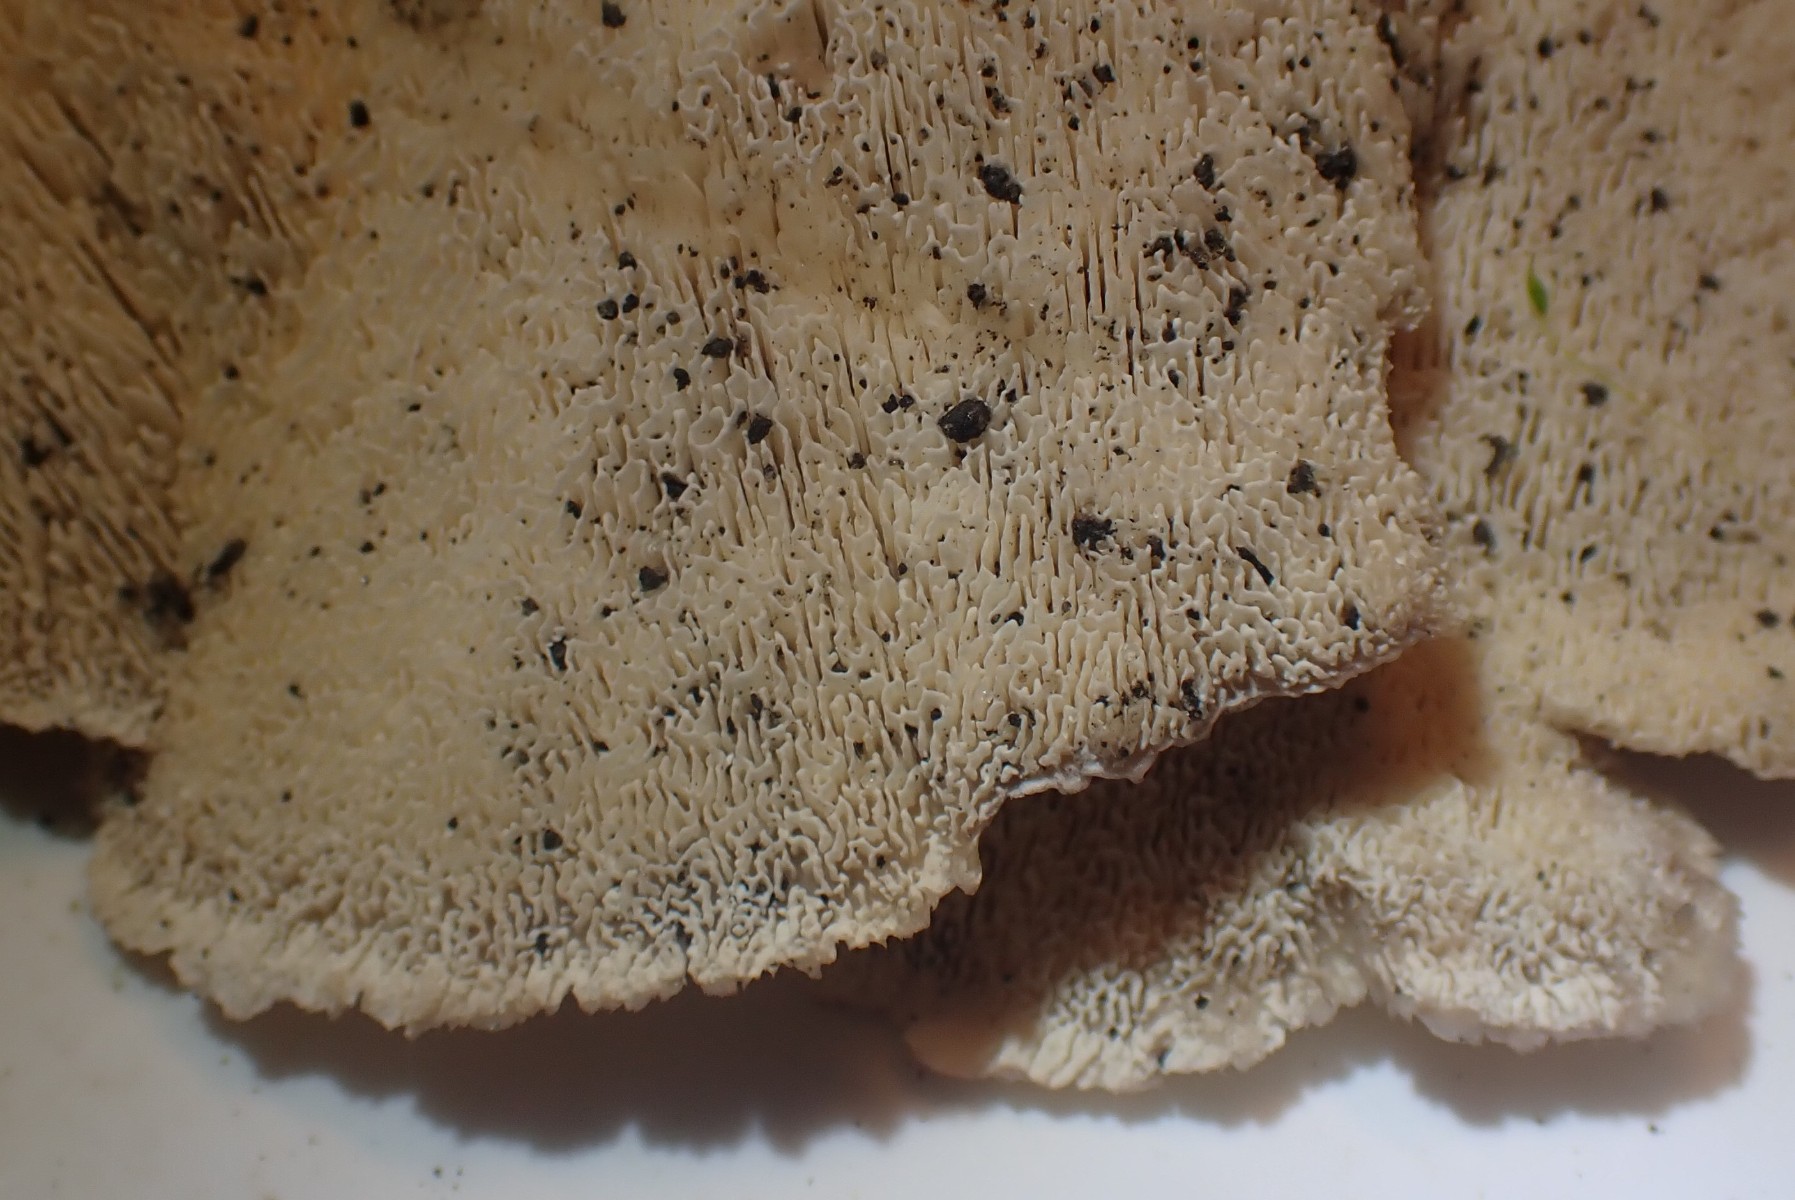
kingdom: Fungi
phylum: Basidiomycota
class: Agaricomycetes
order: Polyporales
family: Podoscyphaceae
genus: Abortiporus
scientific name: Abortiporus biennis
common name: rødmende pjalteporesvamp
